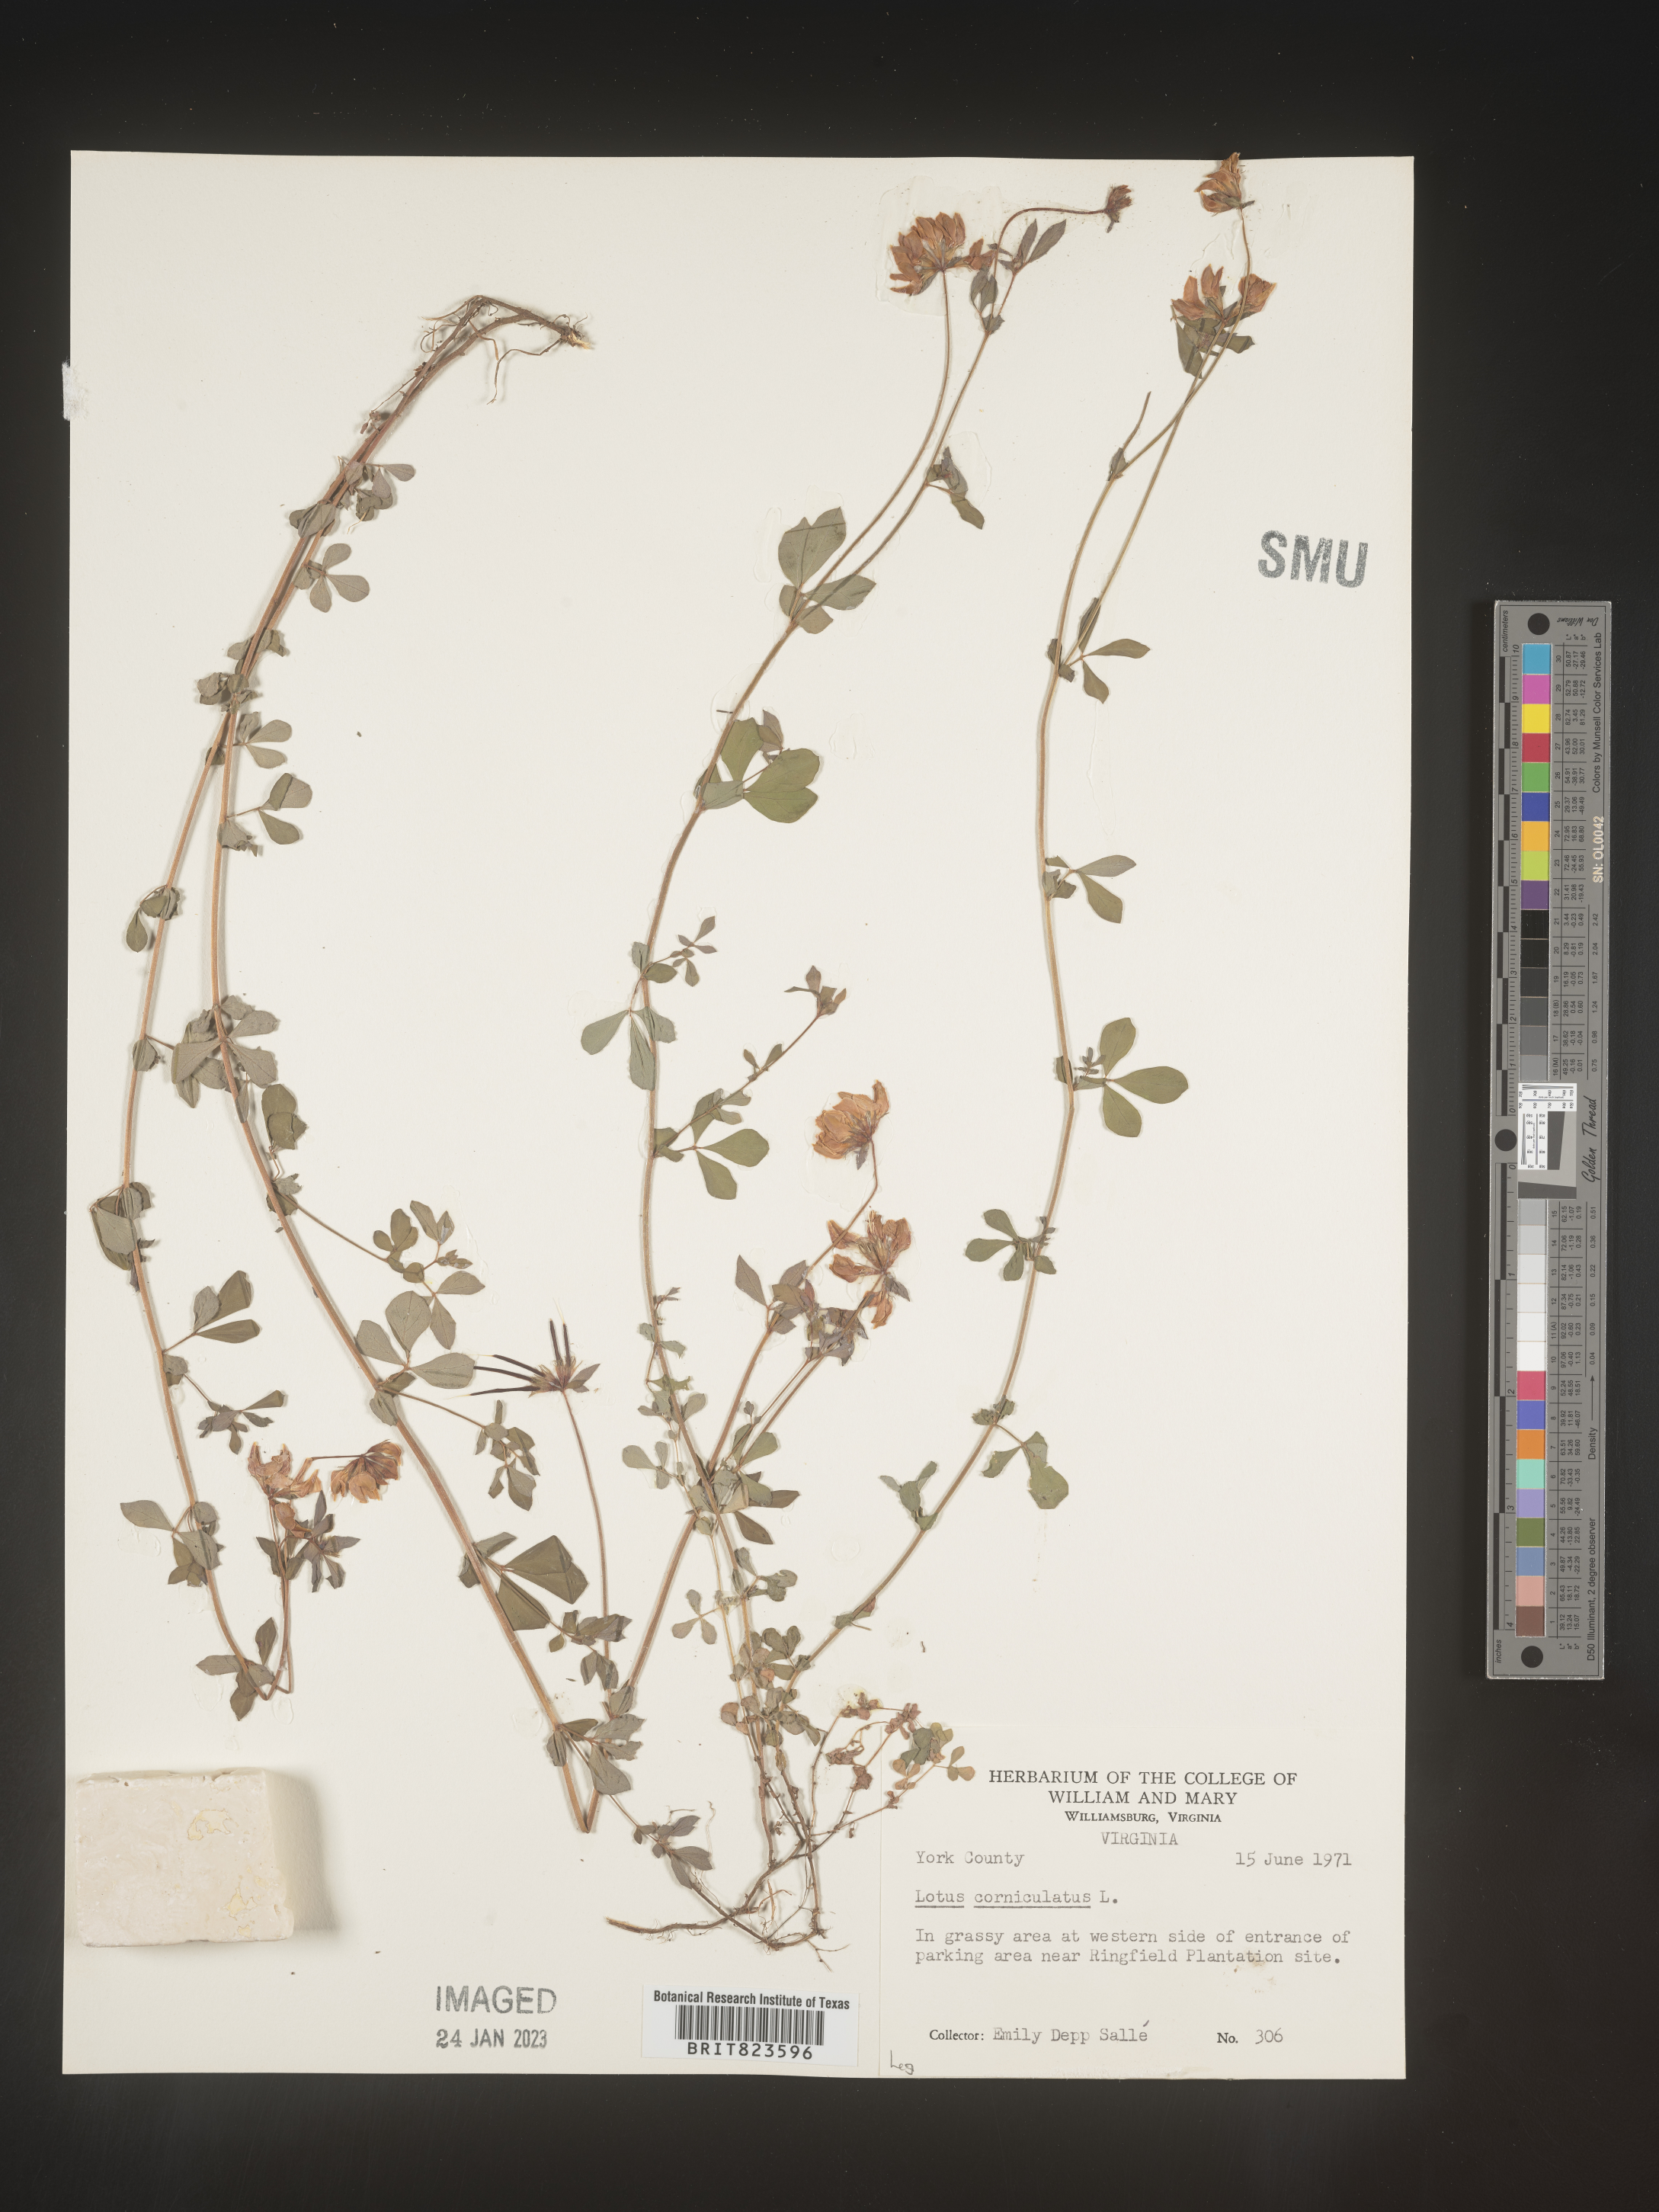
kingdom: Plantae
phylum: Tracheophyta
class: Magnoliopsida
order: Fabales
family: Fabaceae
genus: Lotus
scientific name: Lotus corniculatus
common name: Common bird's-foot-trefoil
